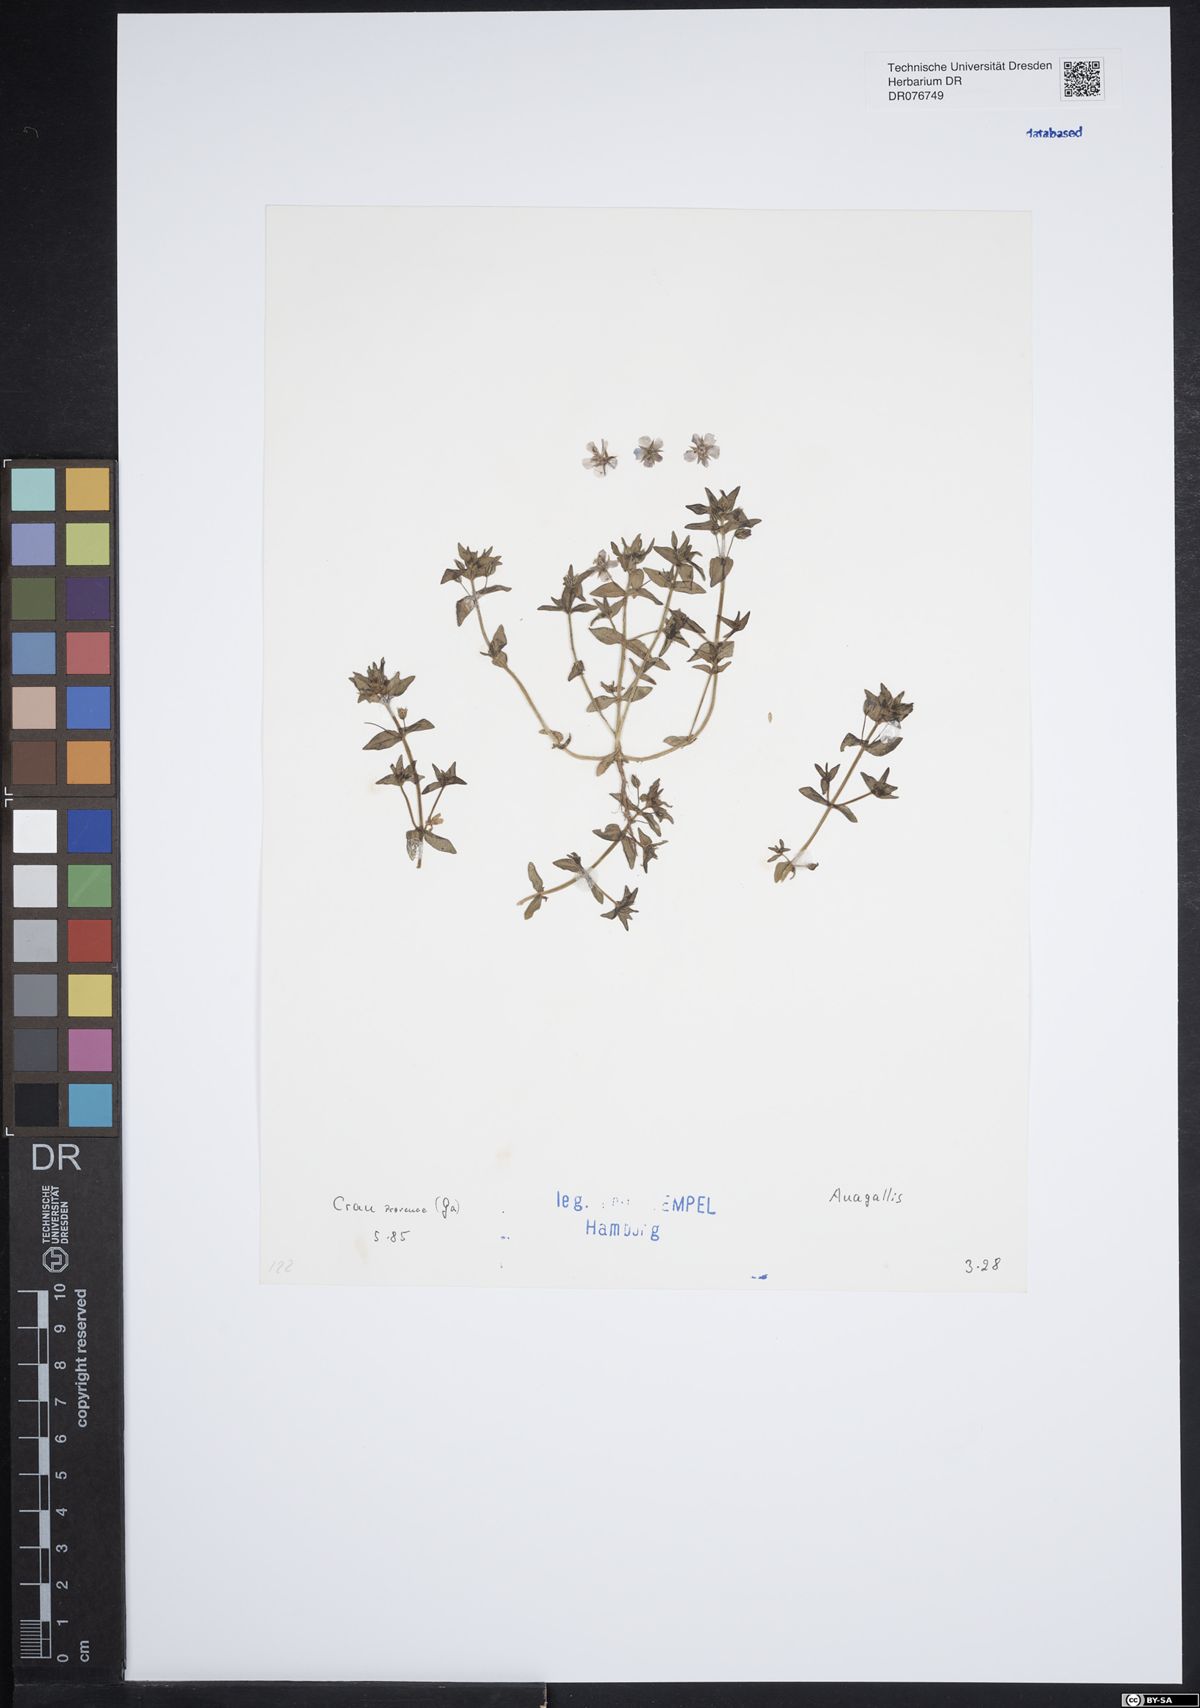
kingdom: Plantae
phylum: Tracheophyta
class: Magnoliopsida
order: Ericales
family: Primulaceae
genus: Lysimachia
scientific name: Lysimachia Anagallis spec
